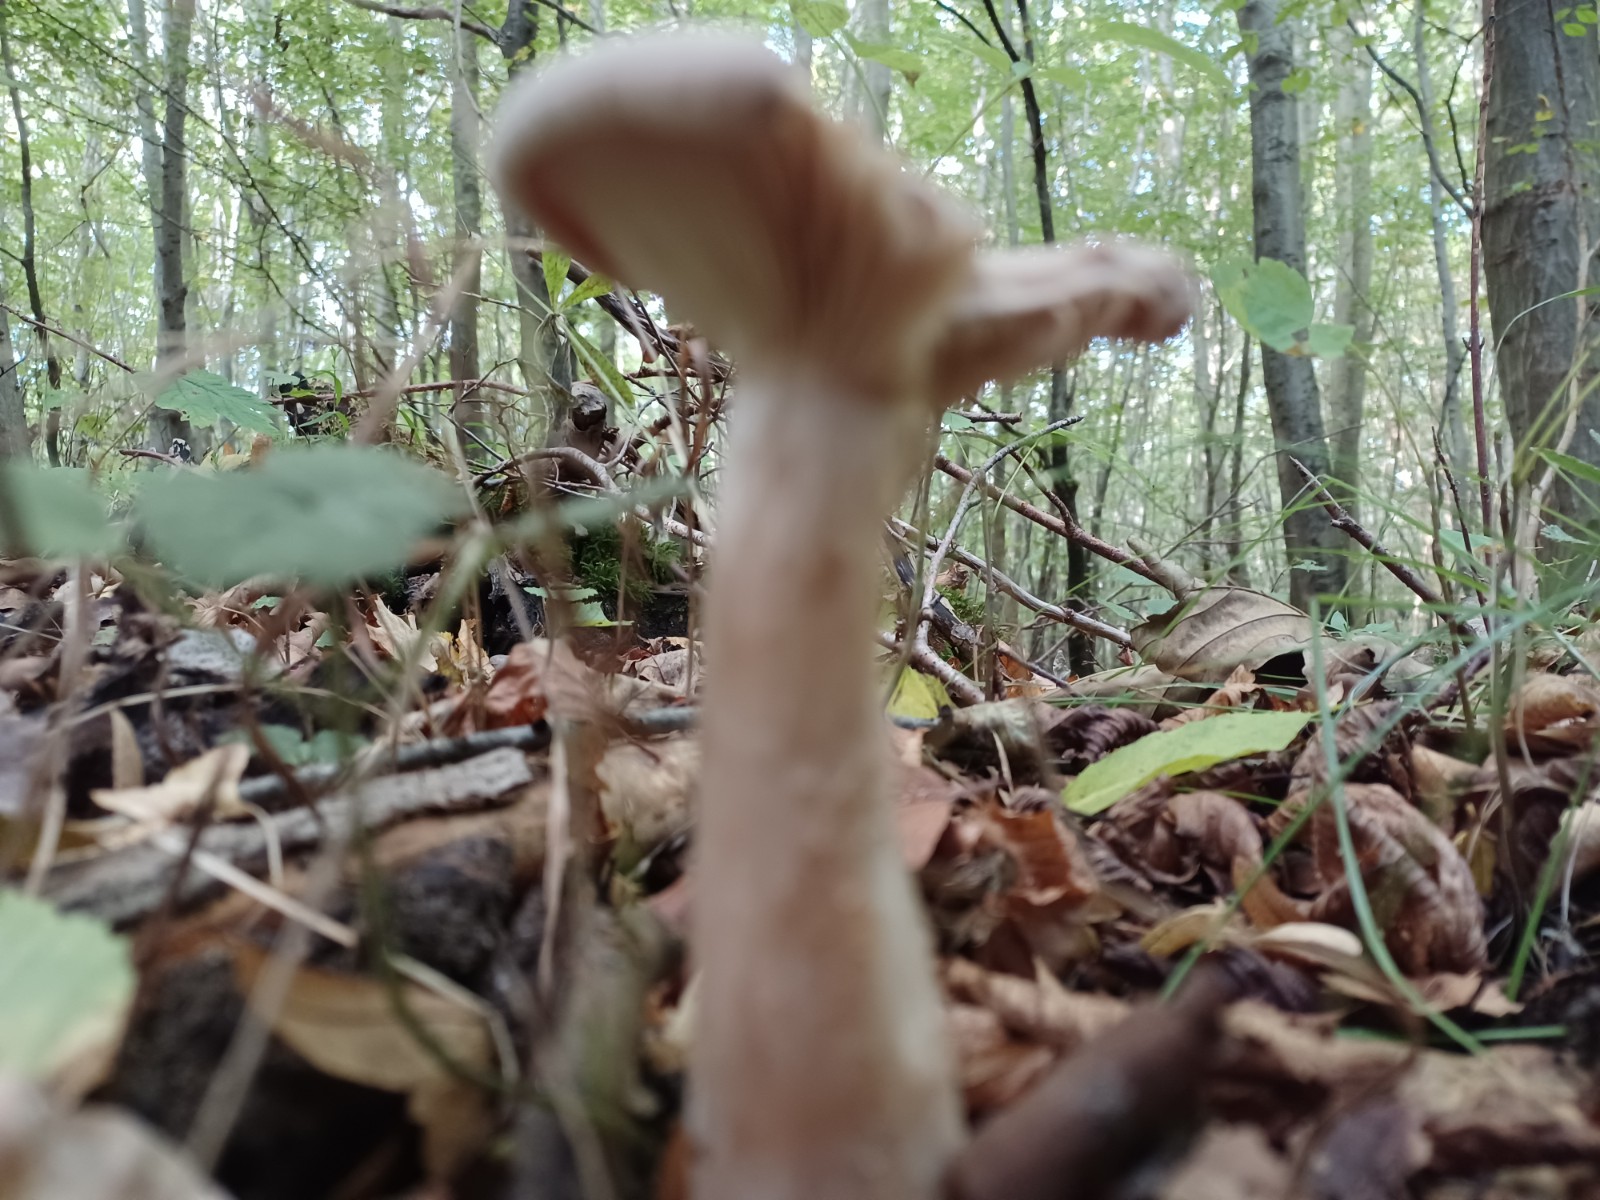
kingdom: Fungi
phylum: Basidiomycota
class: Agaricomycetes
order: Agaricales
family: Tricholomataceae
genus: Infundibulicybe
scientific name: Infundibulicybe geotropa
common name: stor tragthat
